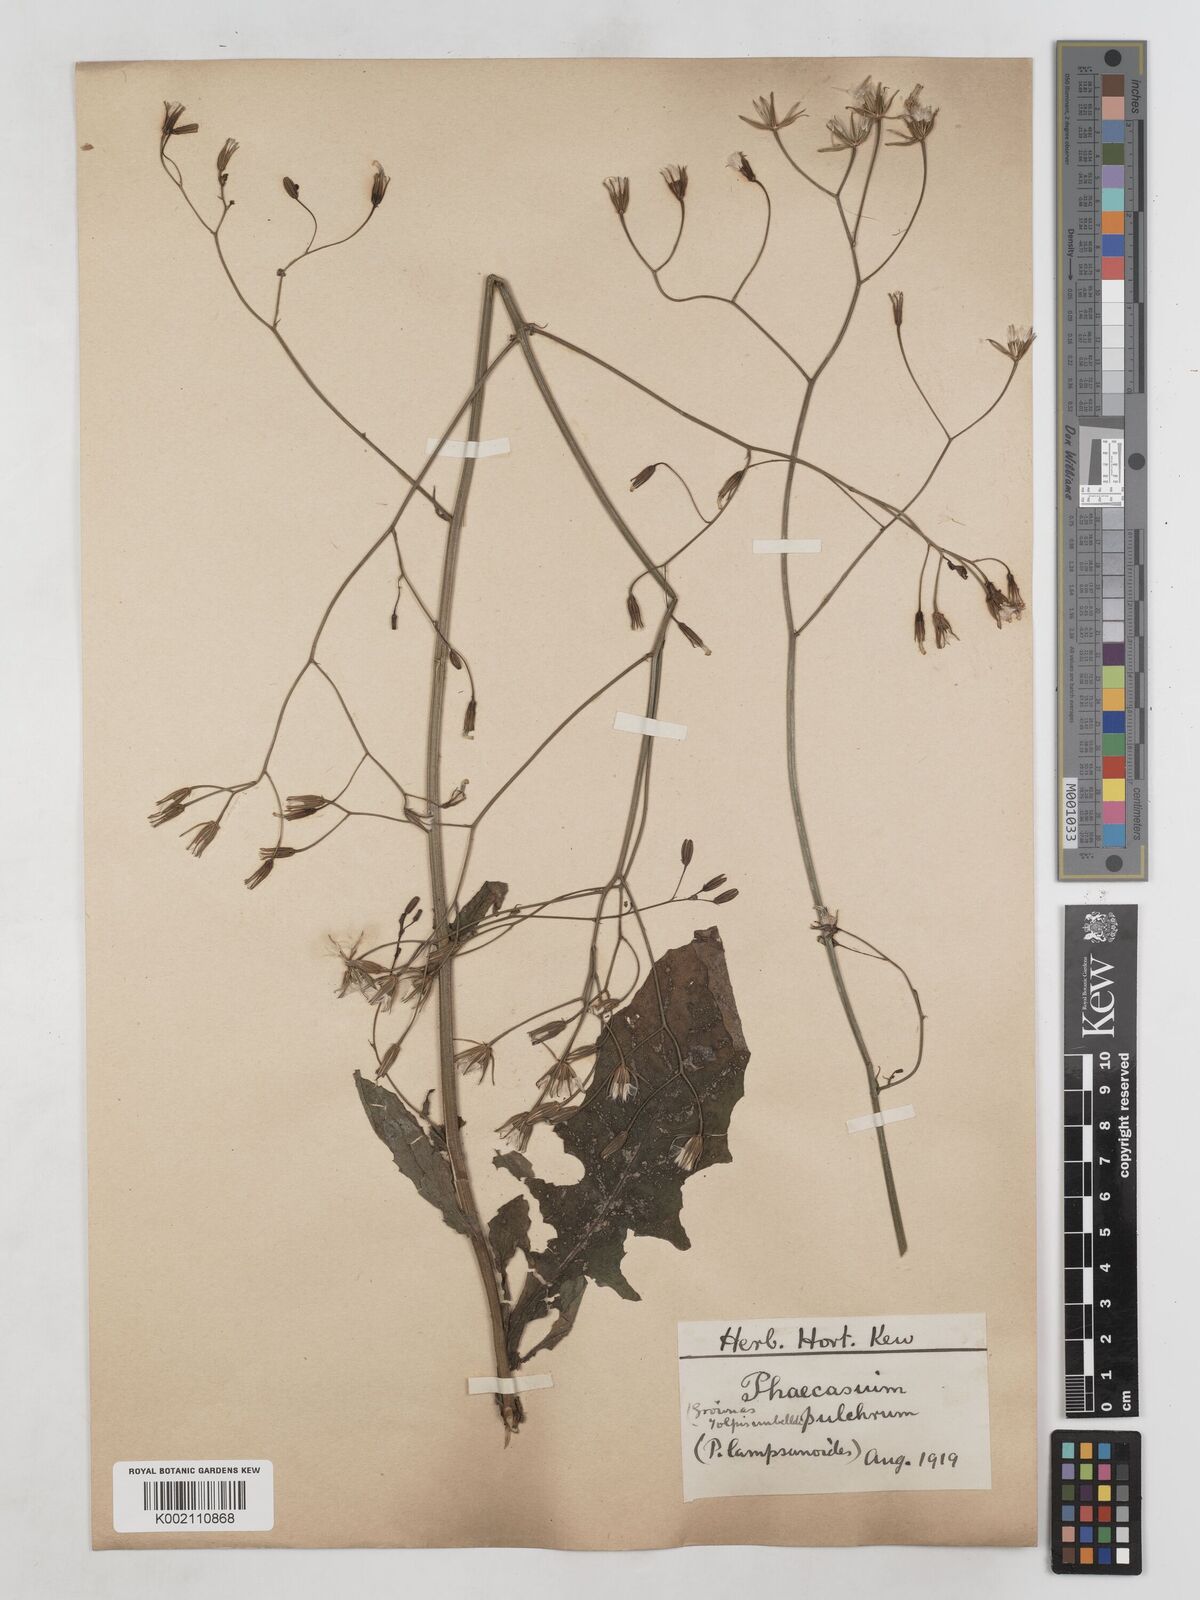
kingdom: Plantae
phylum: Tracheophyta
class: Magnoliopsida
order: Asterales
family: Asteraceae
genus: Crepis
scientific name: Crepis
